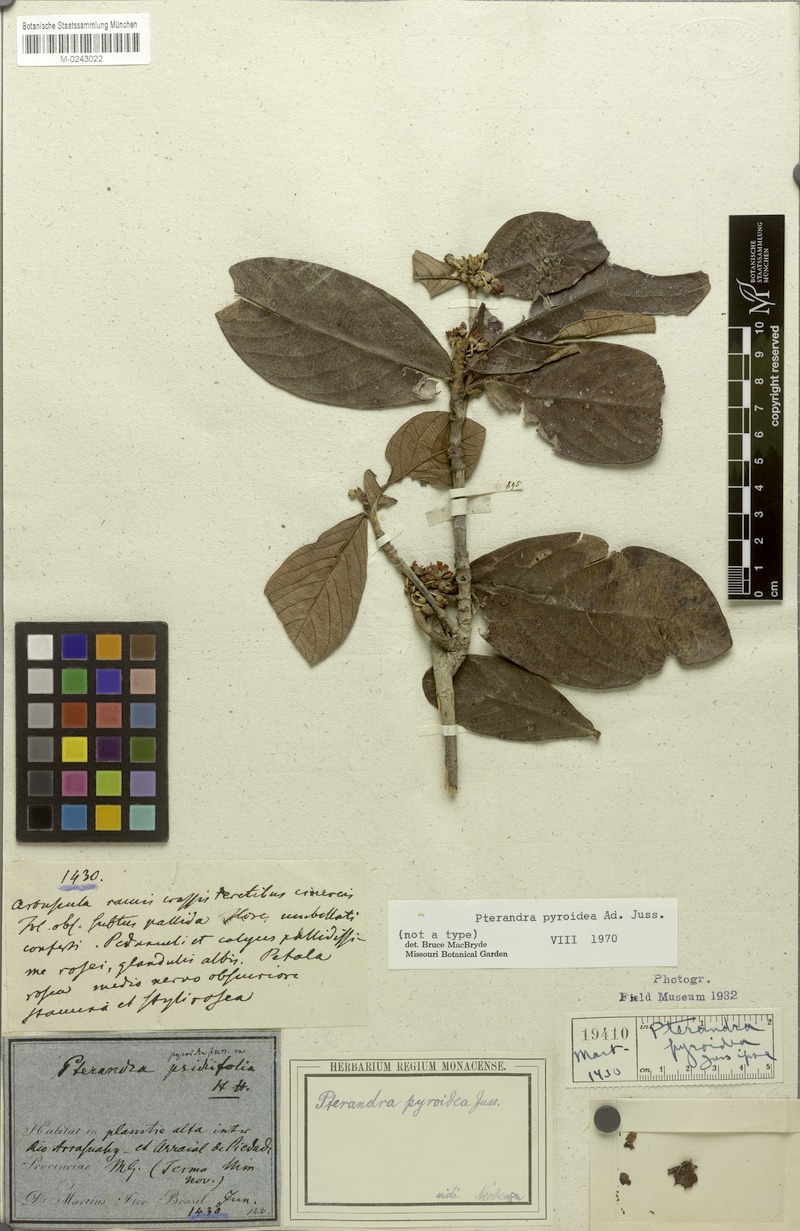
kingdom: Plantae
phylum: Tracheophyta
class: Magnoliopsida
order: Malpighiales
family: Malpighiaceae
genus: Pterandra
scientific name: Pterandra pyroidea
